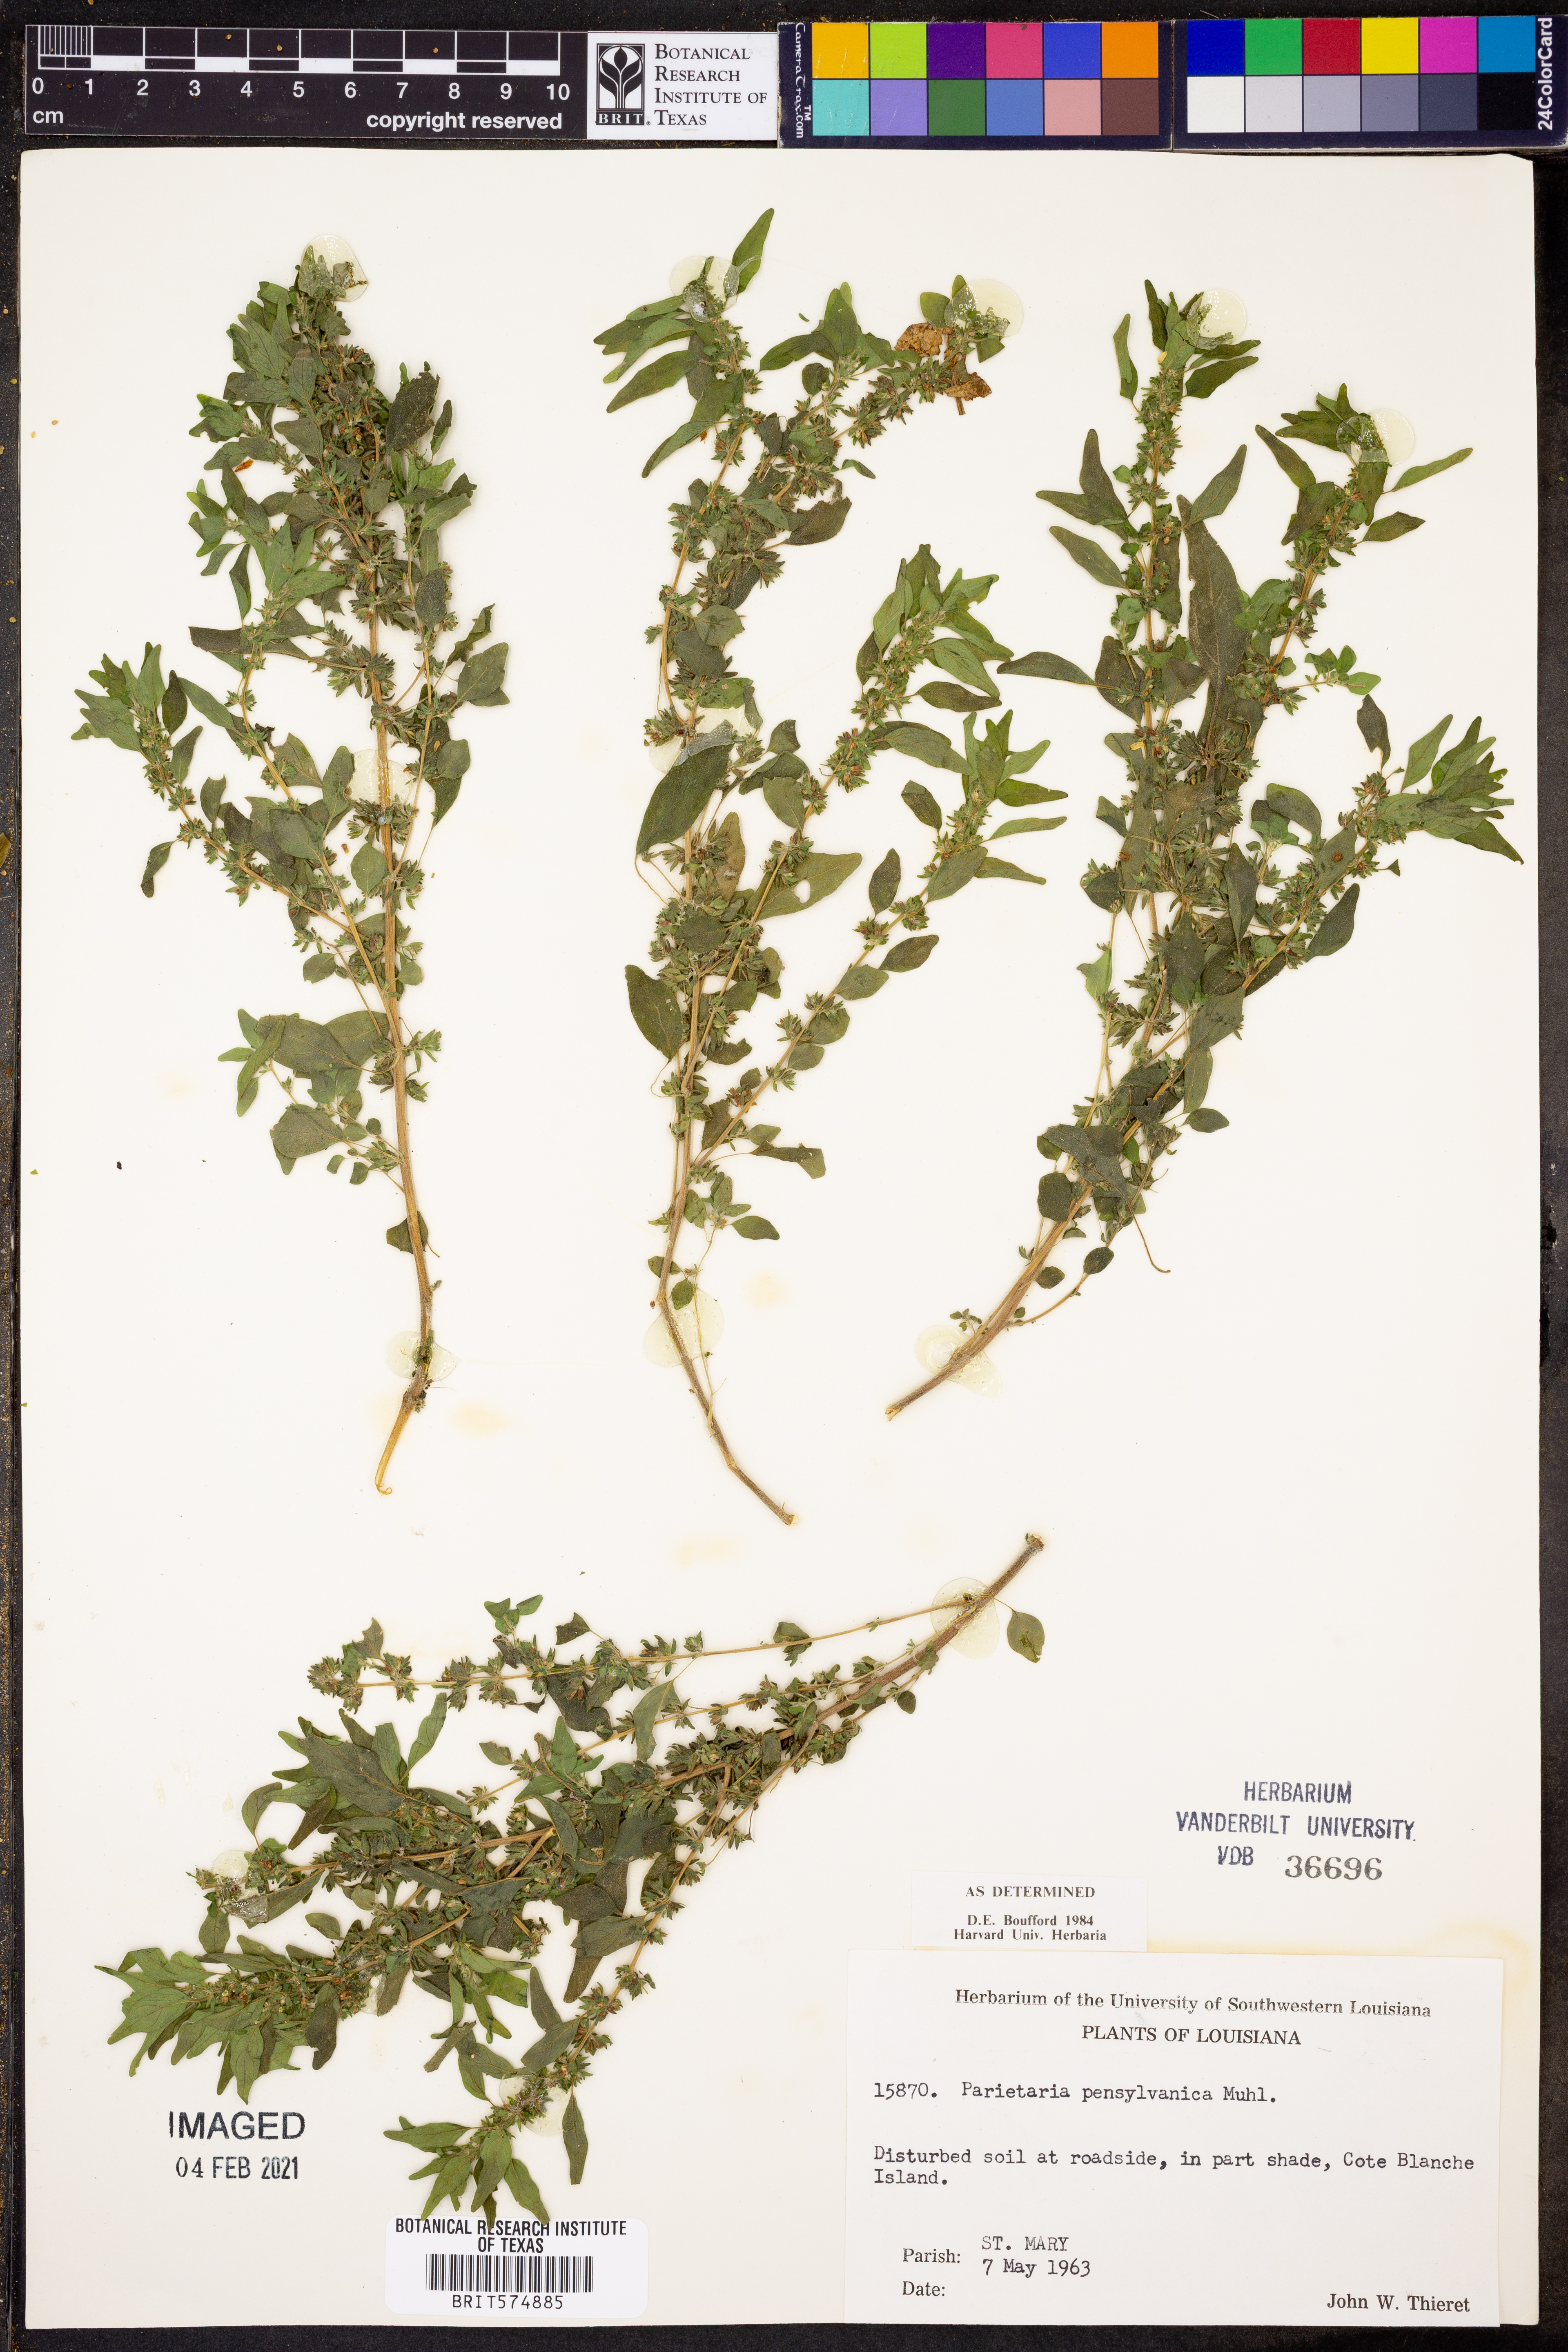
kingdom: Plantae
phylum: Tracheophyta
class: Magnoliopsida
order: Rosales
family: Urticaceae
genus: Parietaria
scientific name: Parietaria pensylvanica
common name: Pennsylvania pellitory
